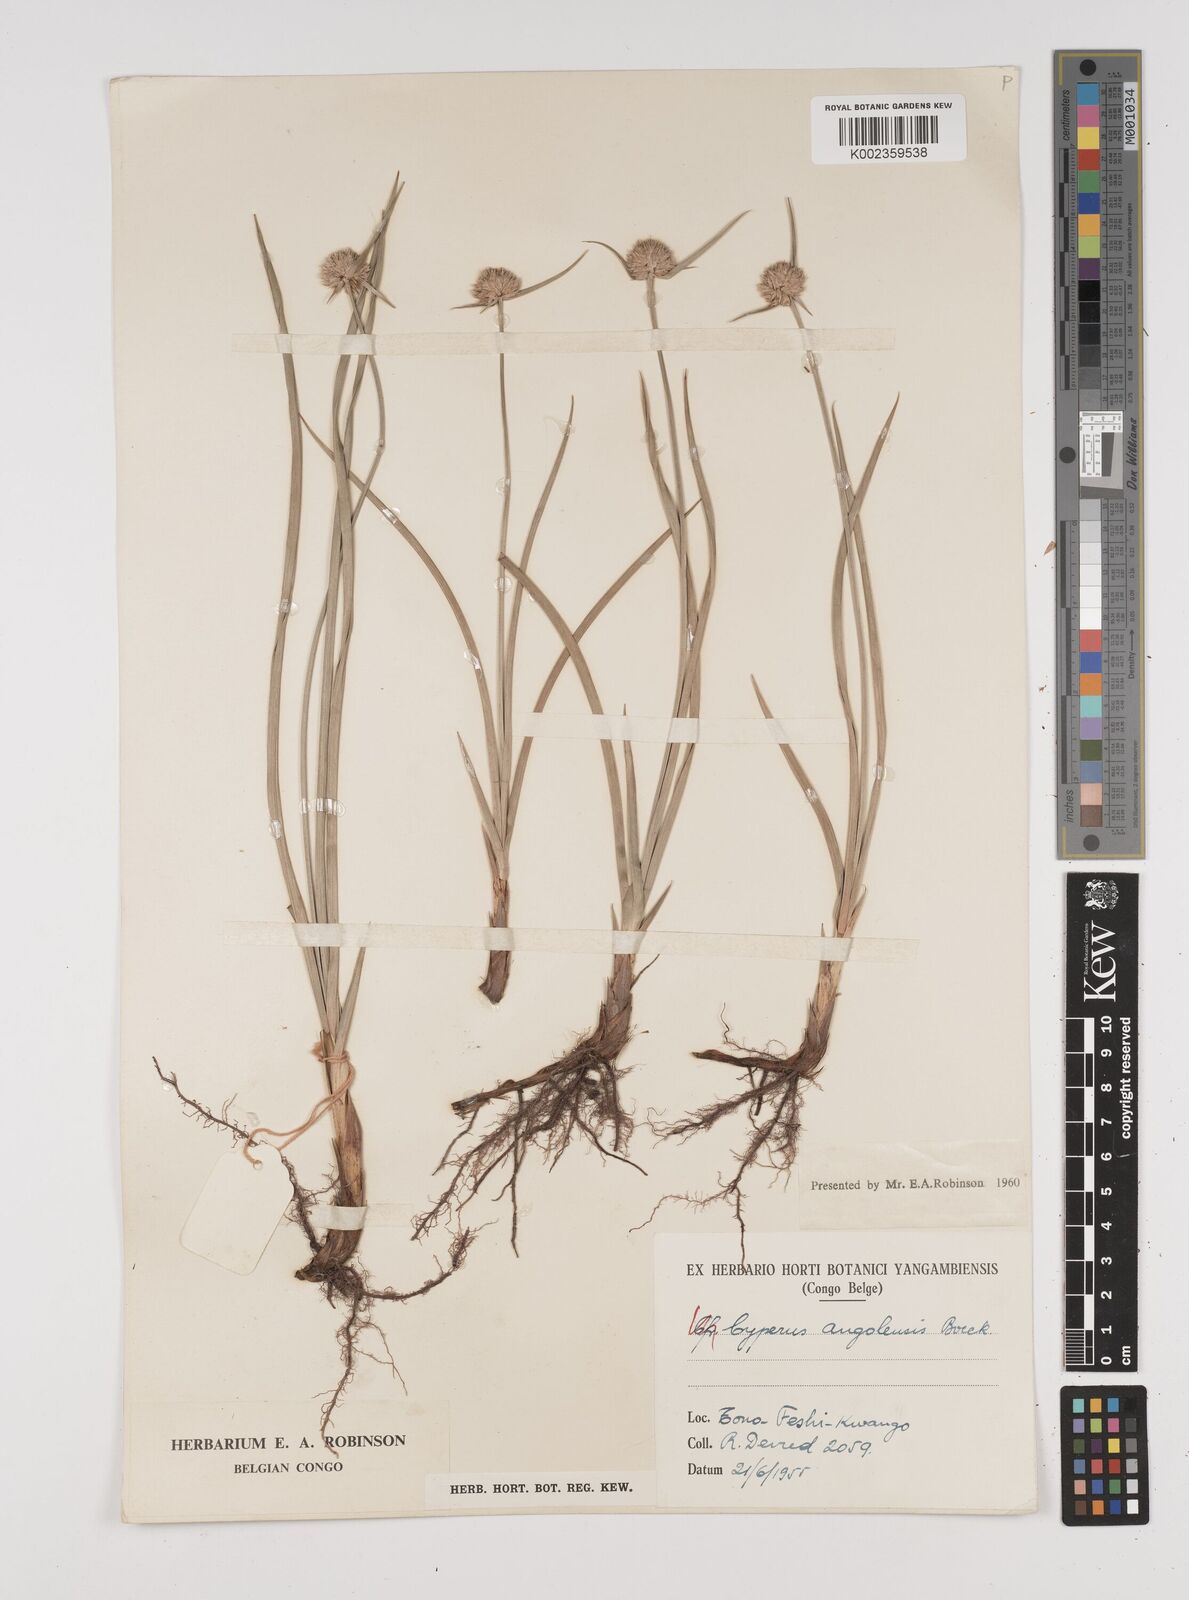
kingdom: Plantae
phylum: Tracheophyta
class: Liliopsida
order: Poales
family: Cyperaceae
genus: Cyperus
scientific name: Cyperus angolensis
